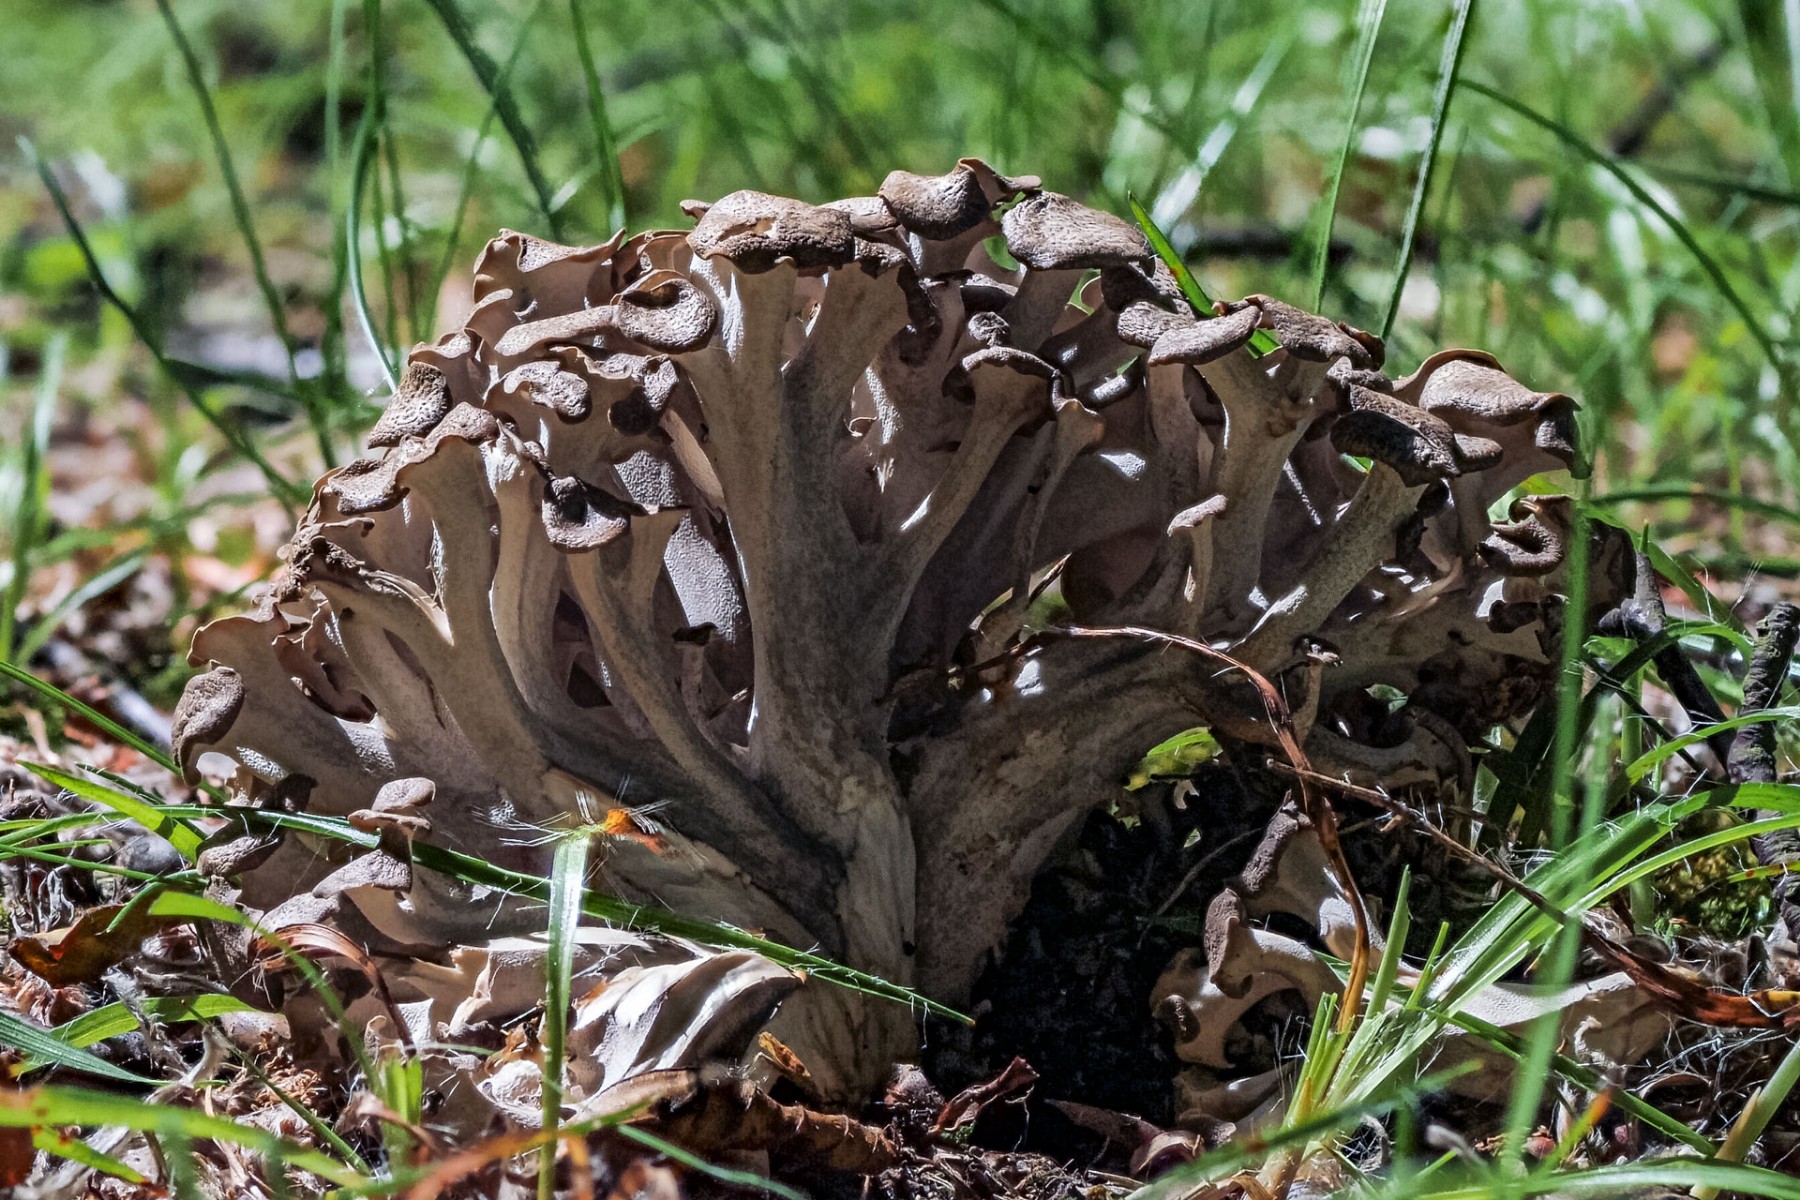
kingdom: Fungi
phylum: Basidiomycota
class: Agaricomycetes
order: Polyporales
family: Polyporaceae
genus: Polyporus
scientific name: Polyporus umbellatus
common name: skærmformet stilkporesvamp
